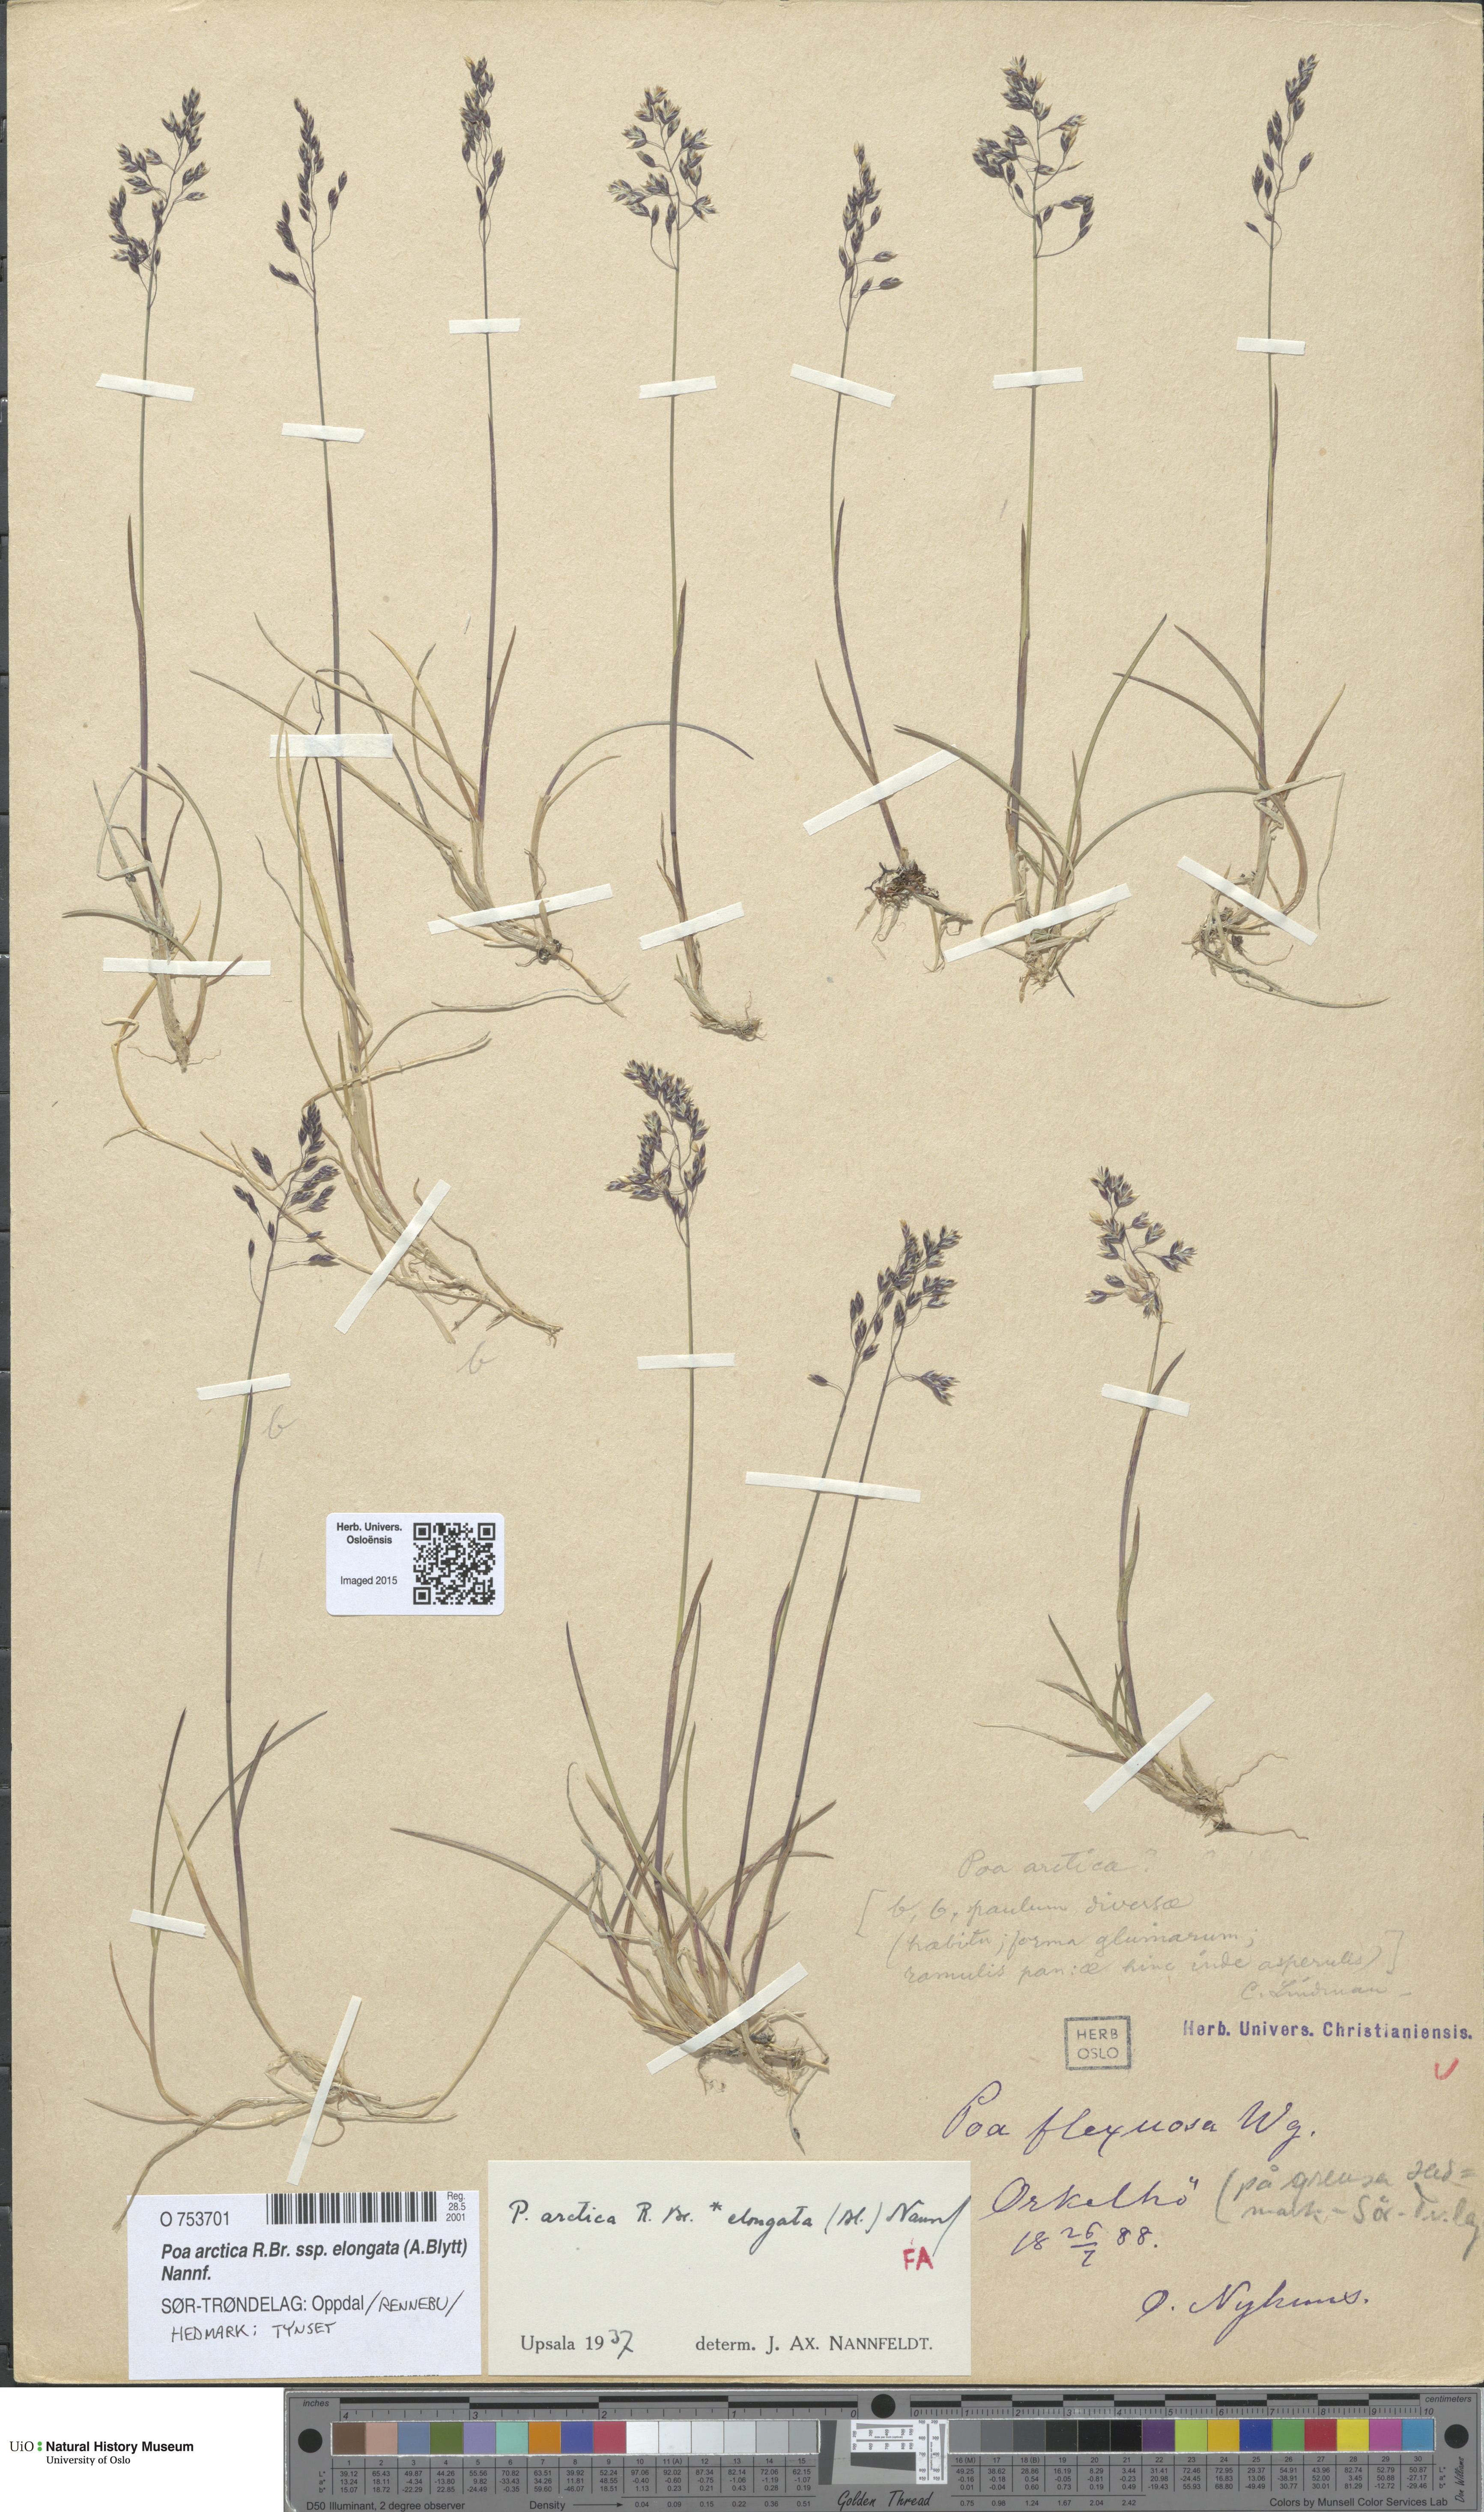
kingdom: Plantae
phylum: Tracheophyta
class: Liliopsida
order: Poales
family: Poaceae
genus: Poa
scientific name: Poa arctica
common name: Arctic bluegrass
